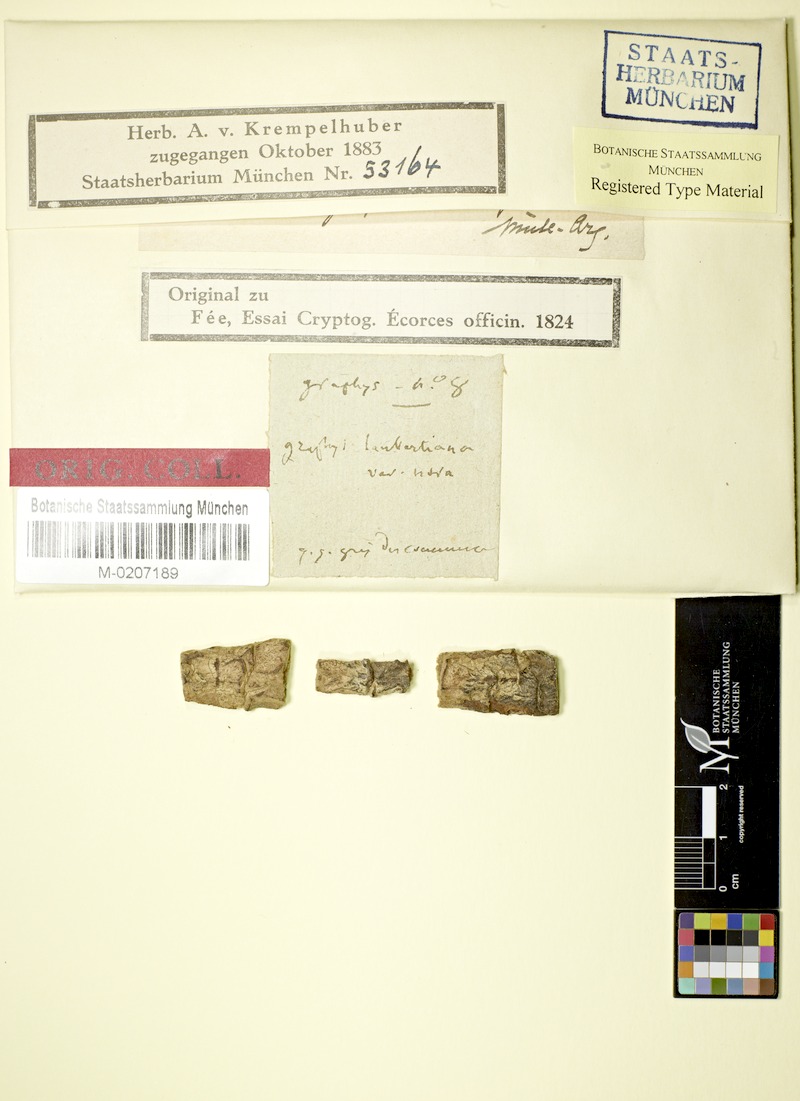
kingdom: Fungi
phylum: Ascomycota
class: Lecanoromycetes
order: Ostropales
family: Graphidaceae
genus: Phaeographis
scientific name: Phaeographis
